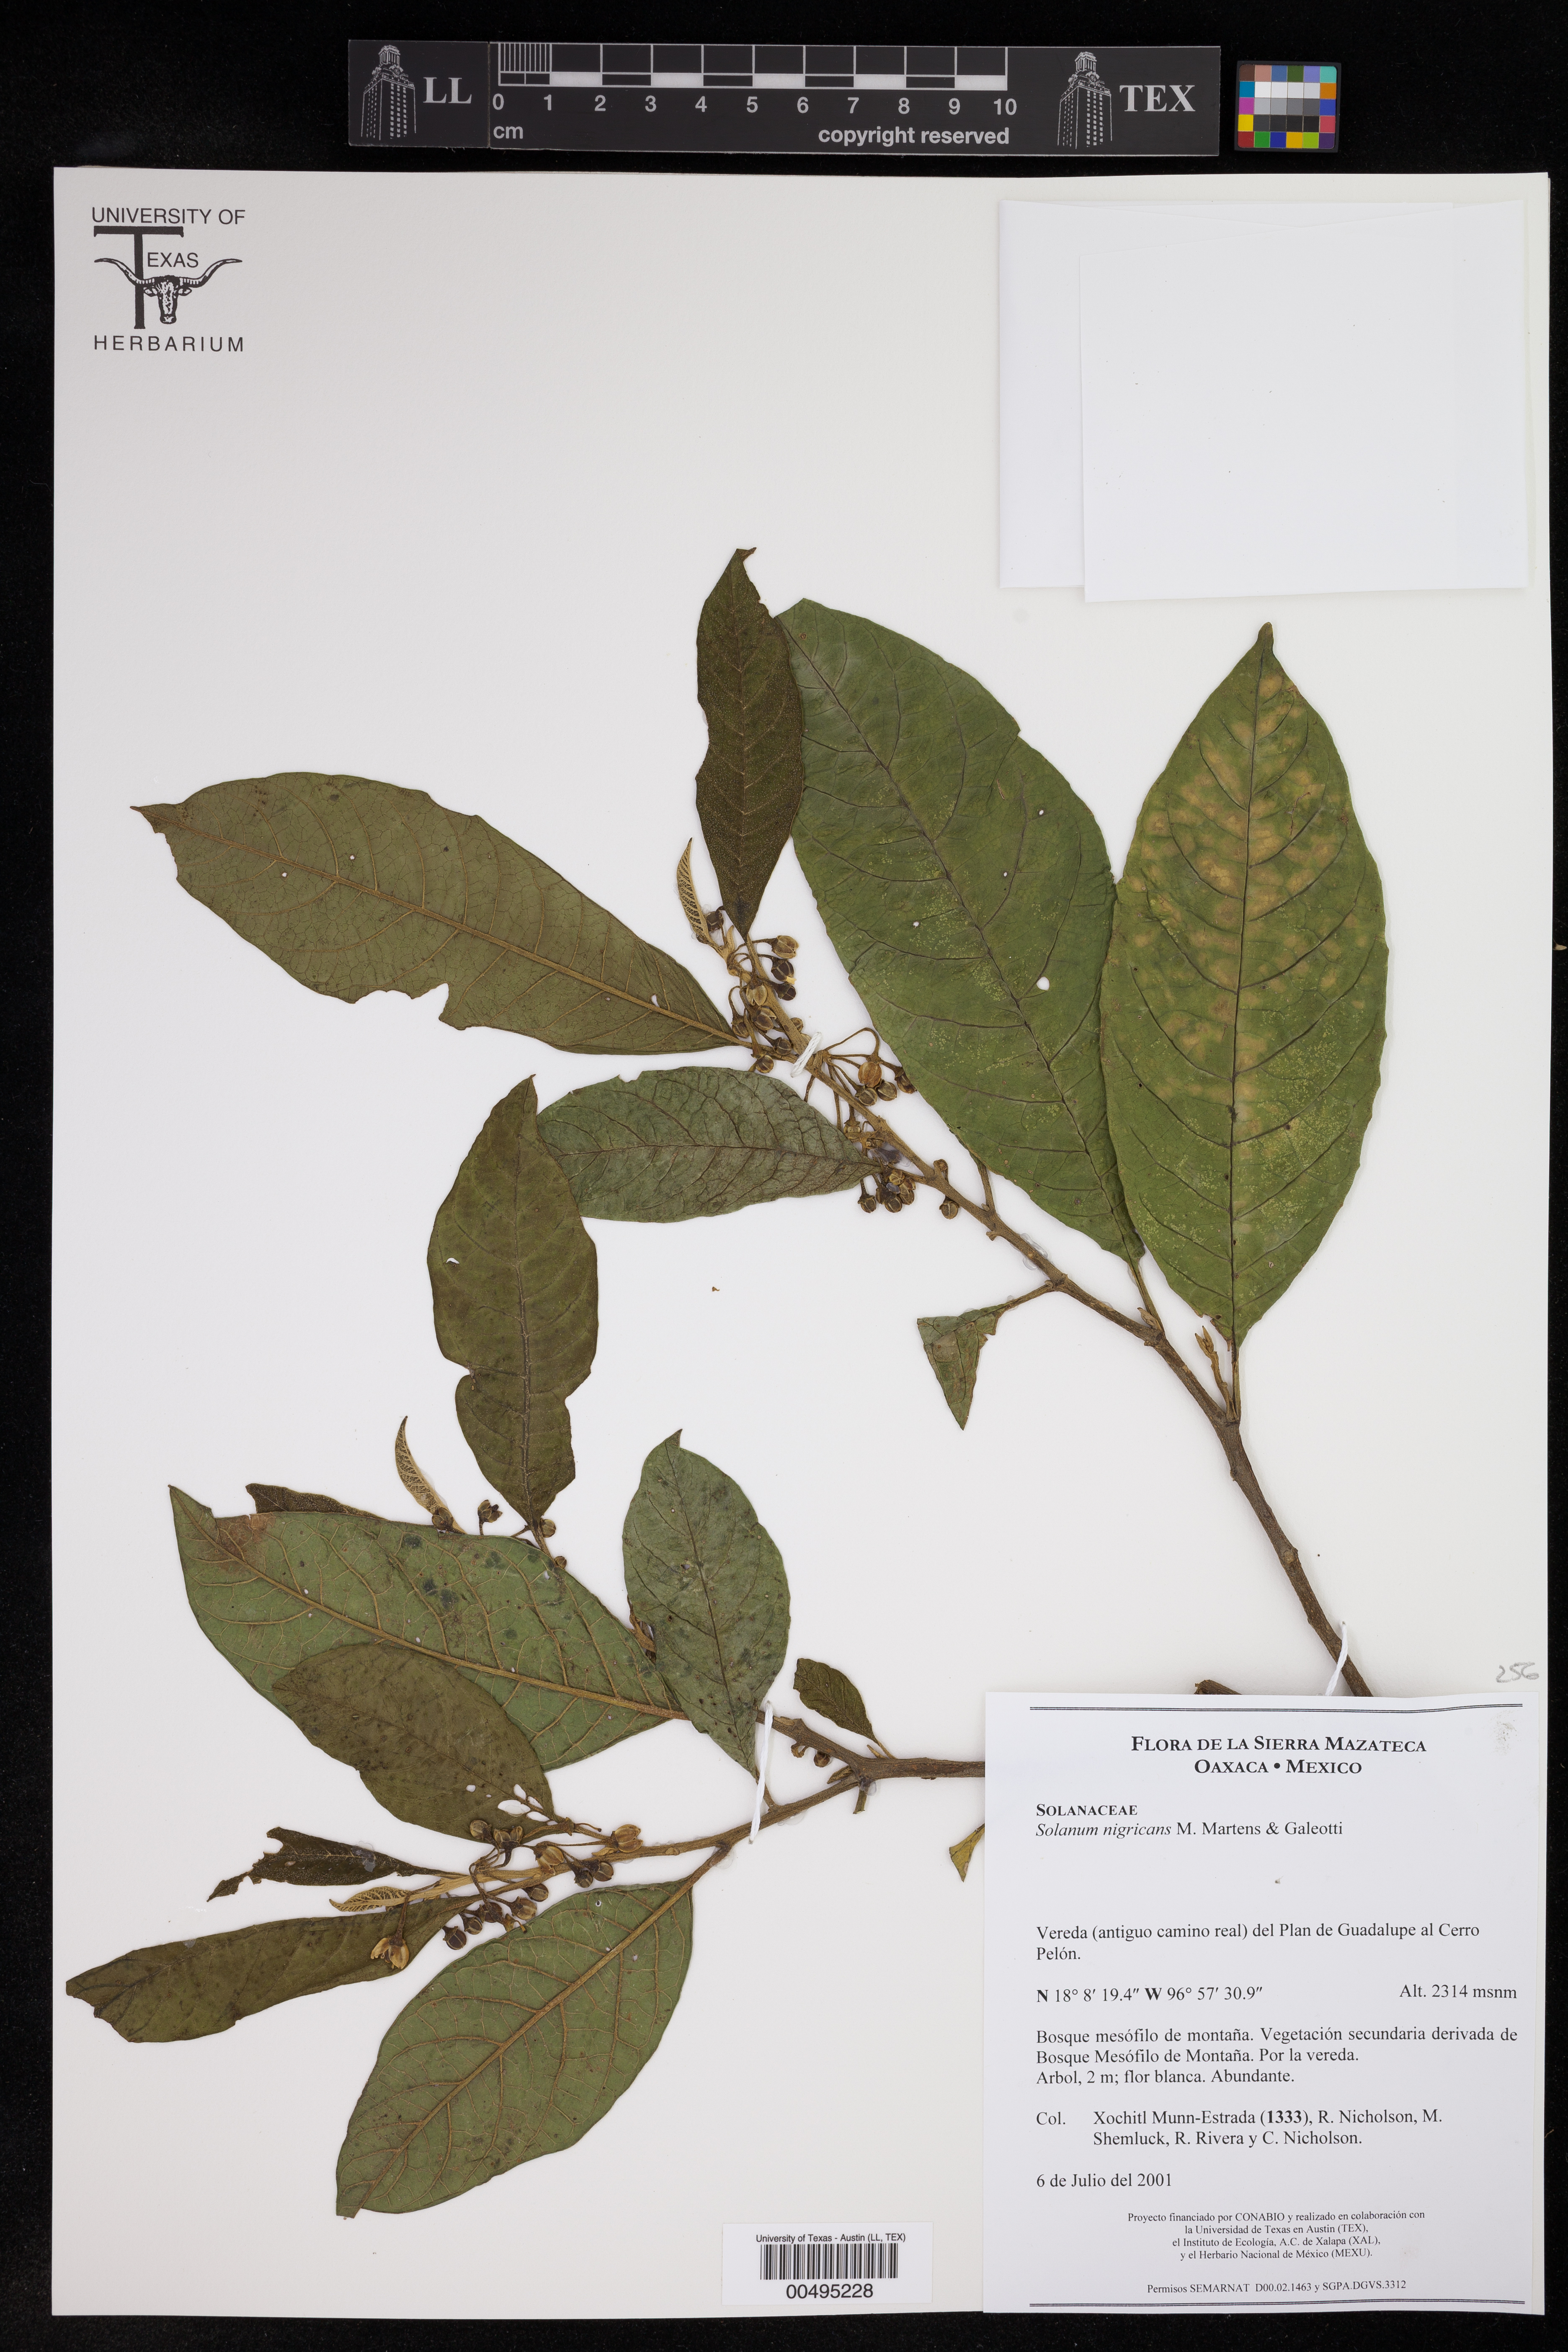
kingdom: Plantae
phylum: Tracheophyta
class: Magnoliopsida
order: Solanales
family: Solanaceae
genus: Solanum
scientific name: Solanum nigricans
